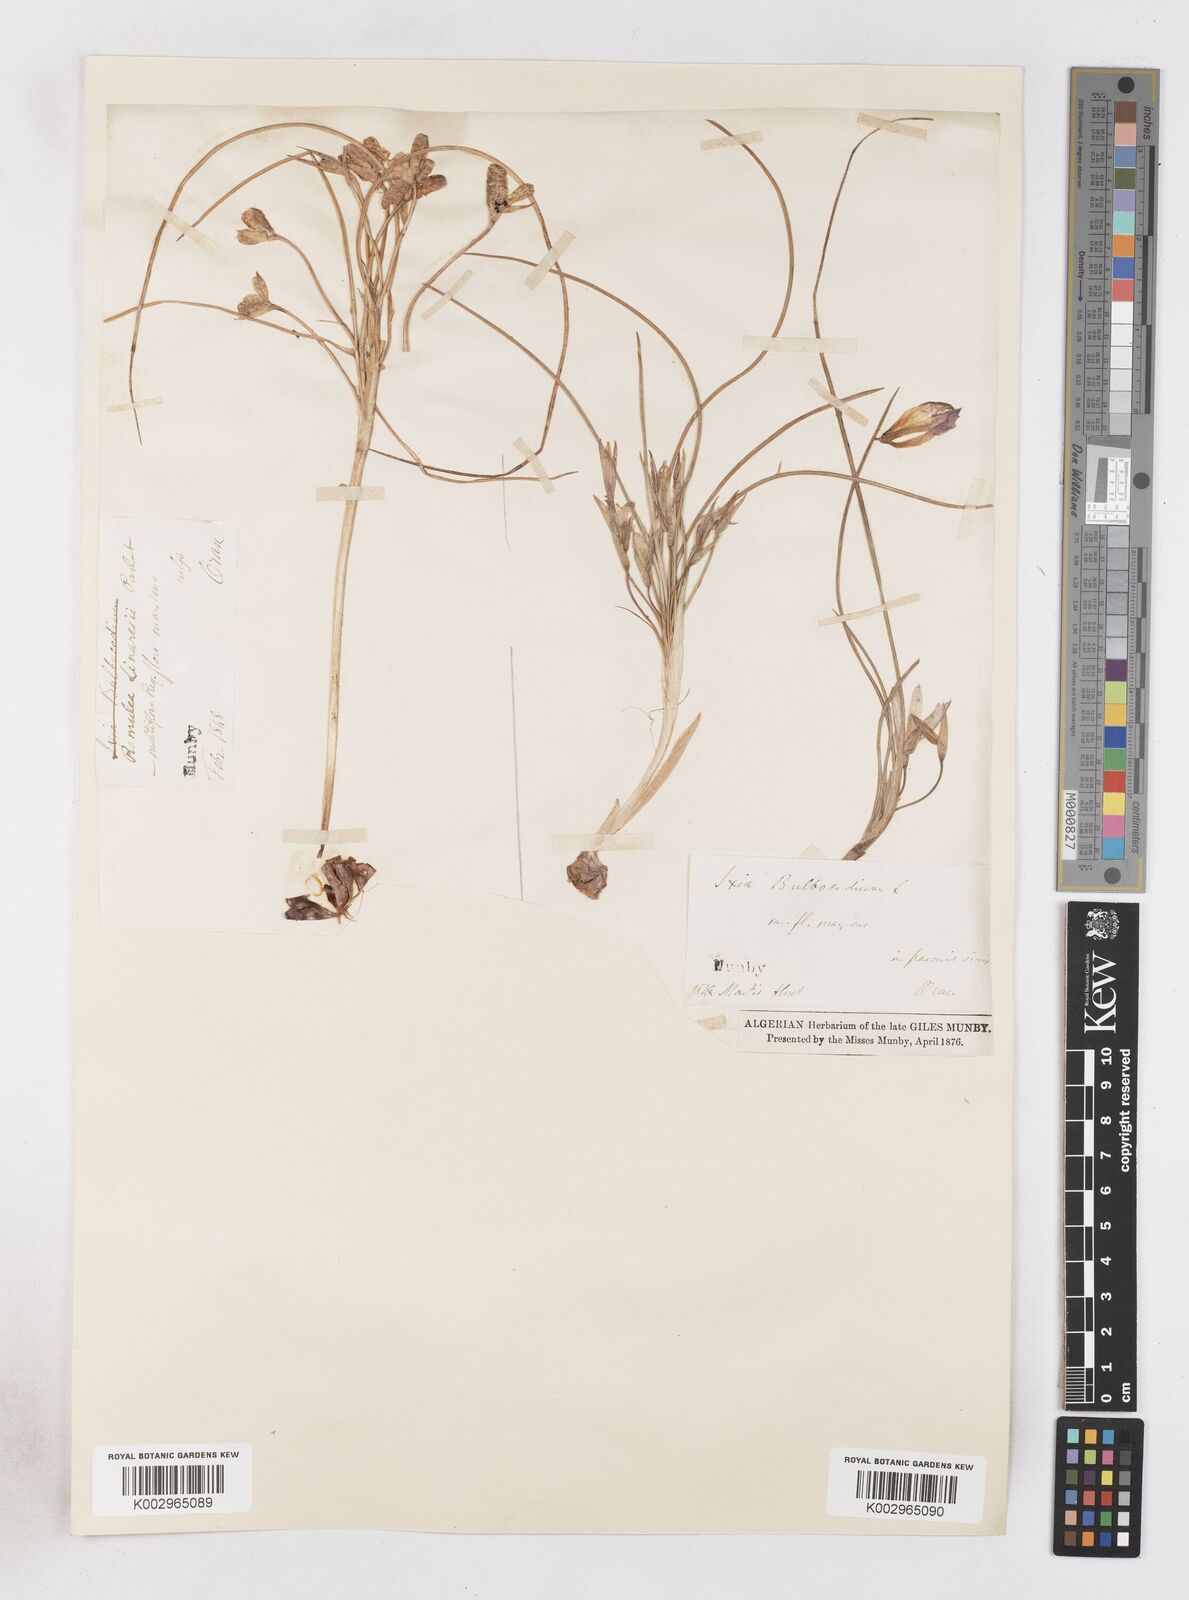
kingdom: Plantae
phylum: Tracheophyta
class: Liliopsida
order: Asparagales
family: Iridaceae
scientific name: Iridaceae
